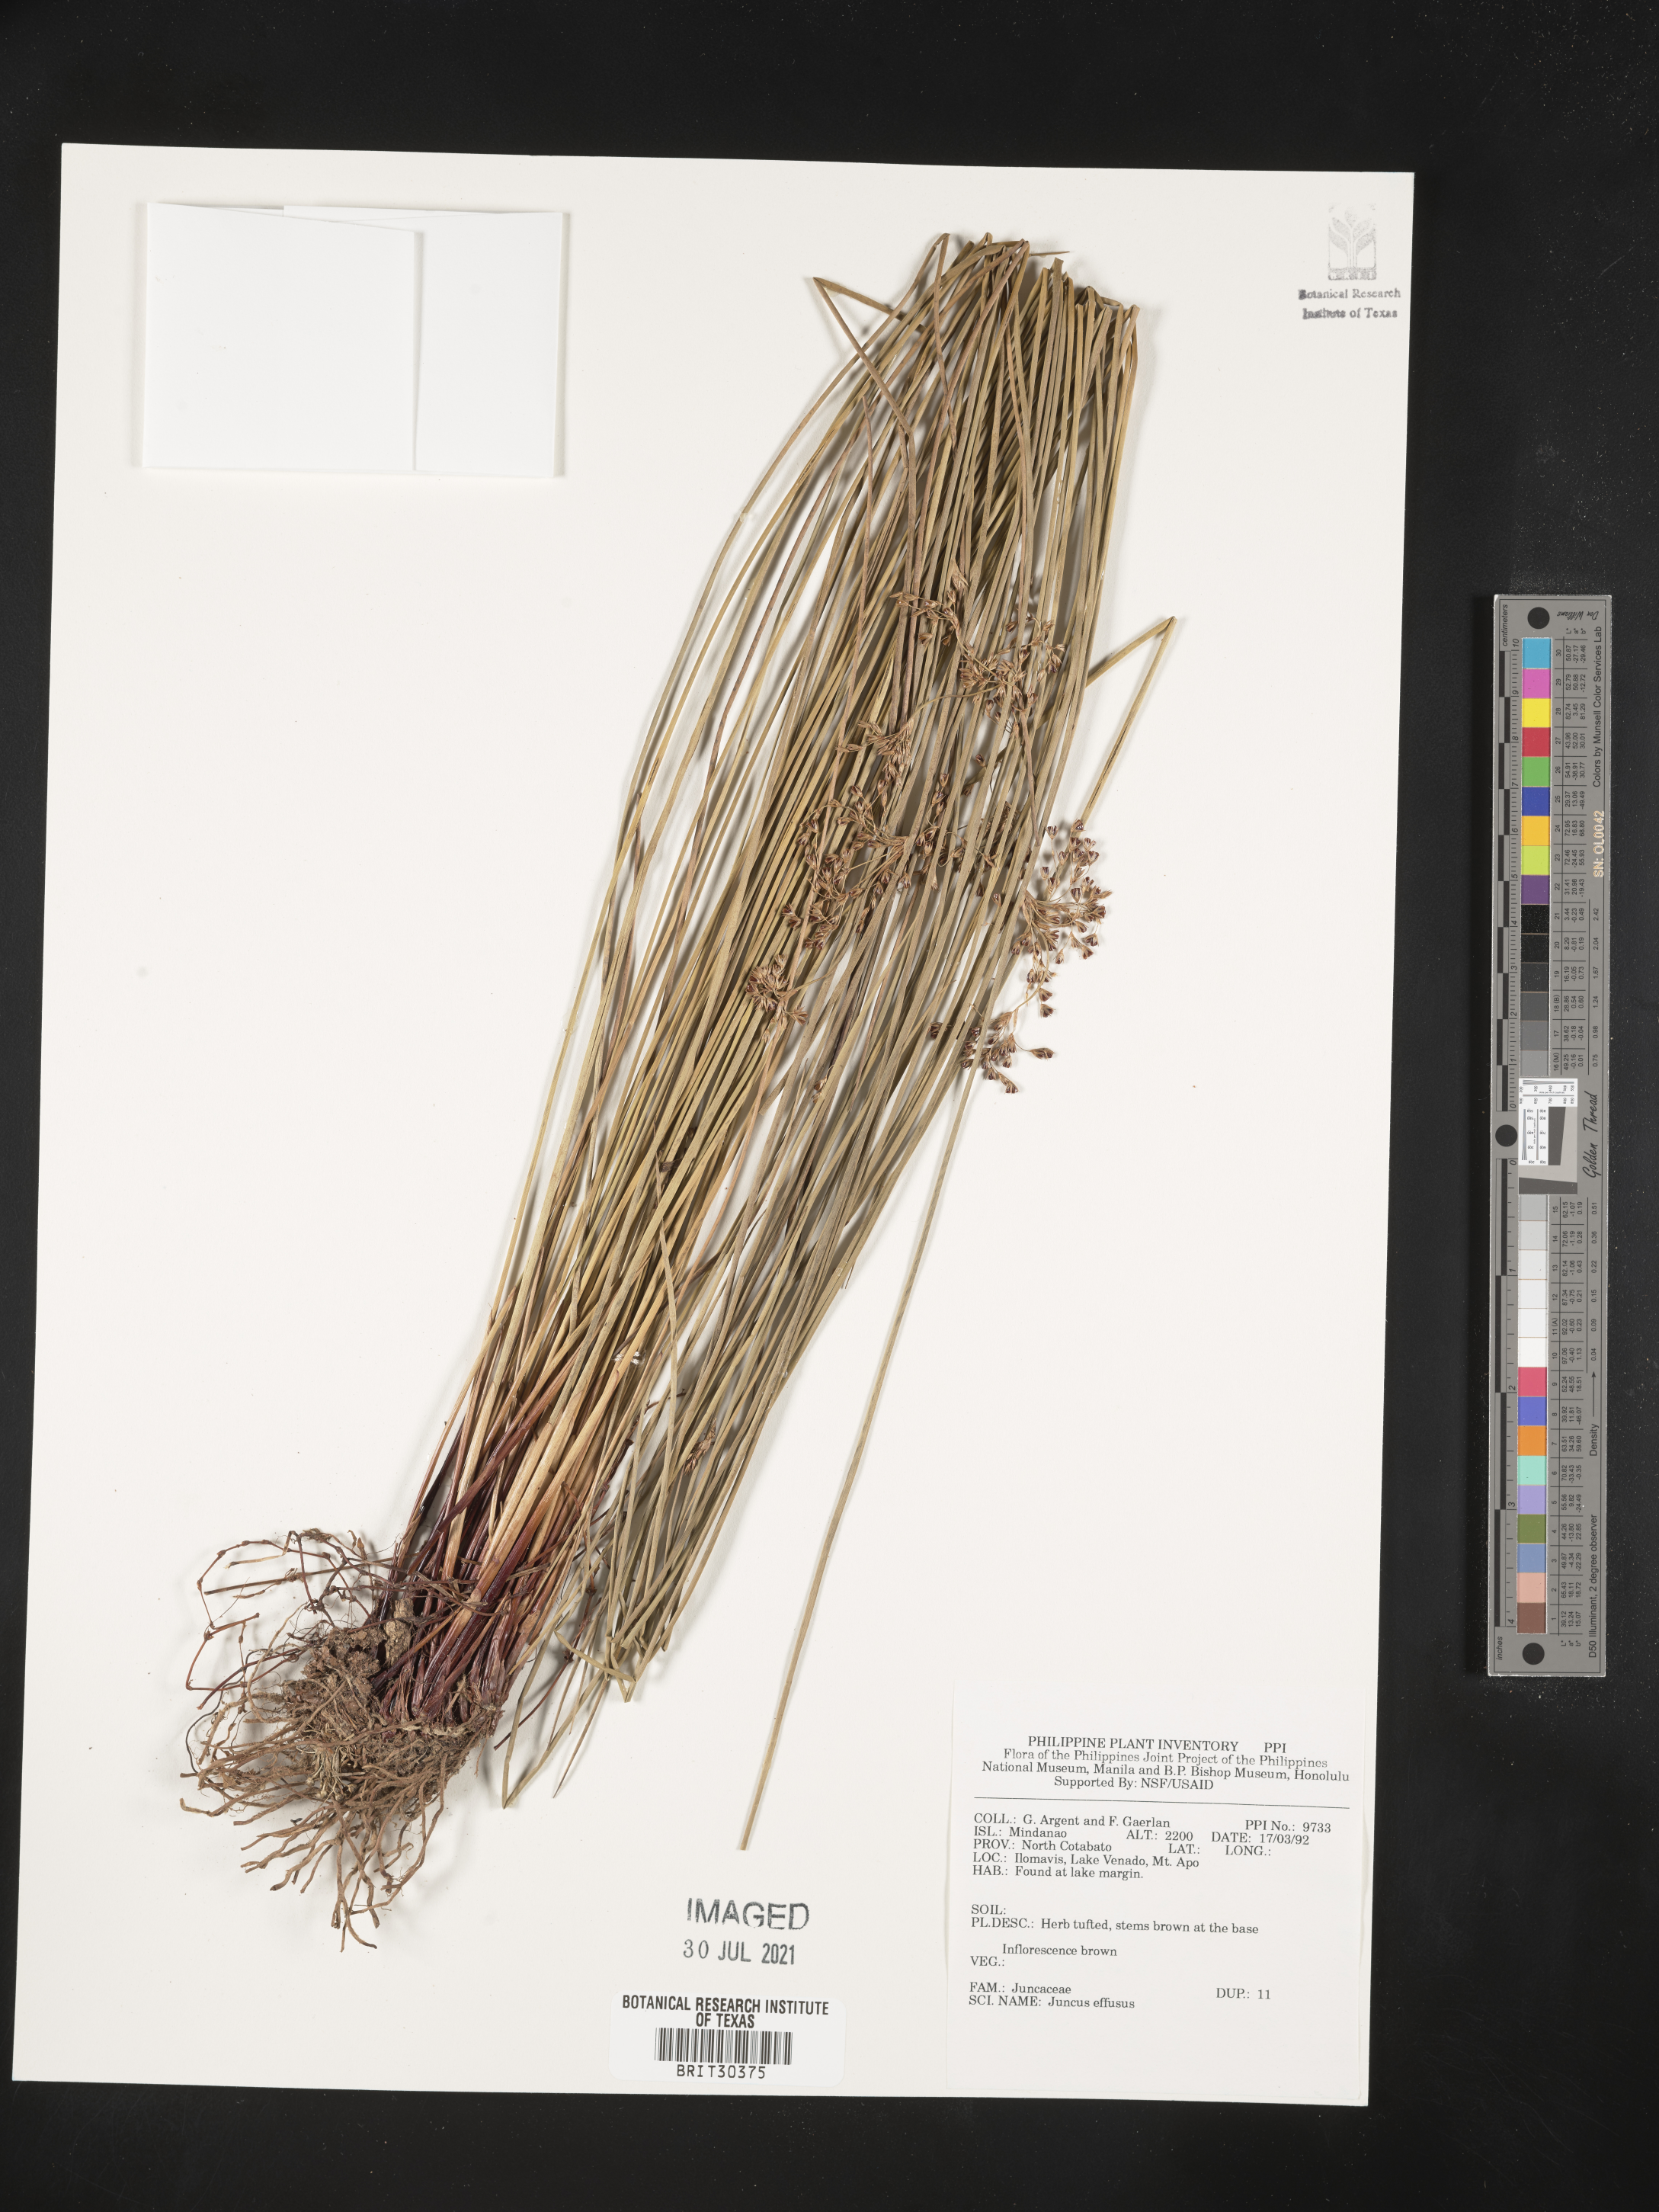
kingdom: Plantae
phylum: Tracheophyta
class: Liliopsida
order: Poales
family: Juncaceae
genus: Juncus
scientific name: Juncus effusus
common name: Soft rush
